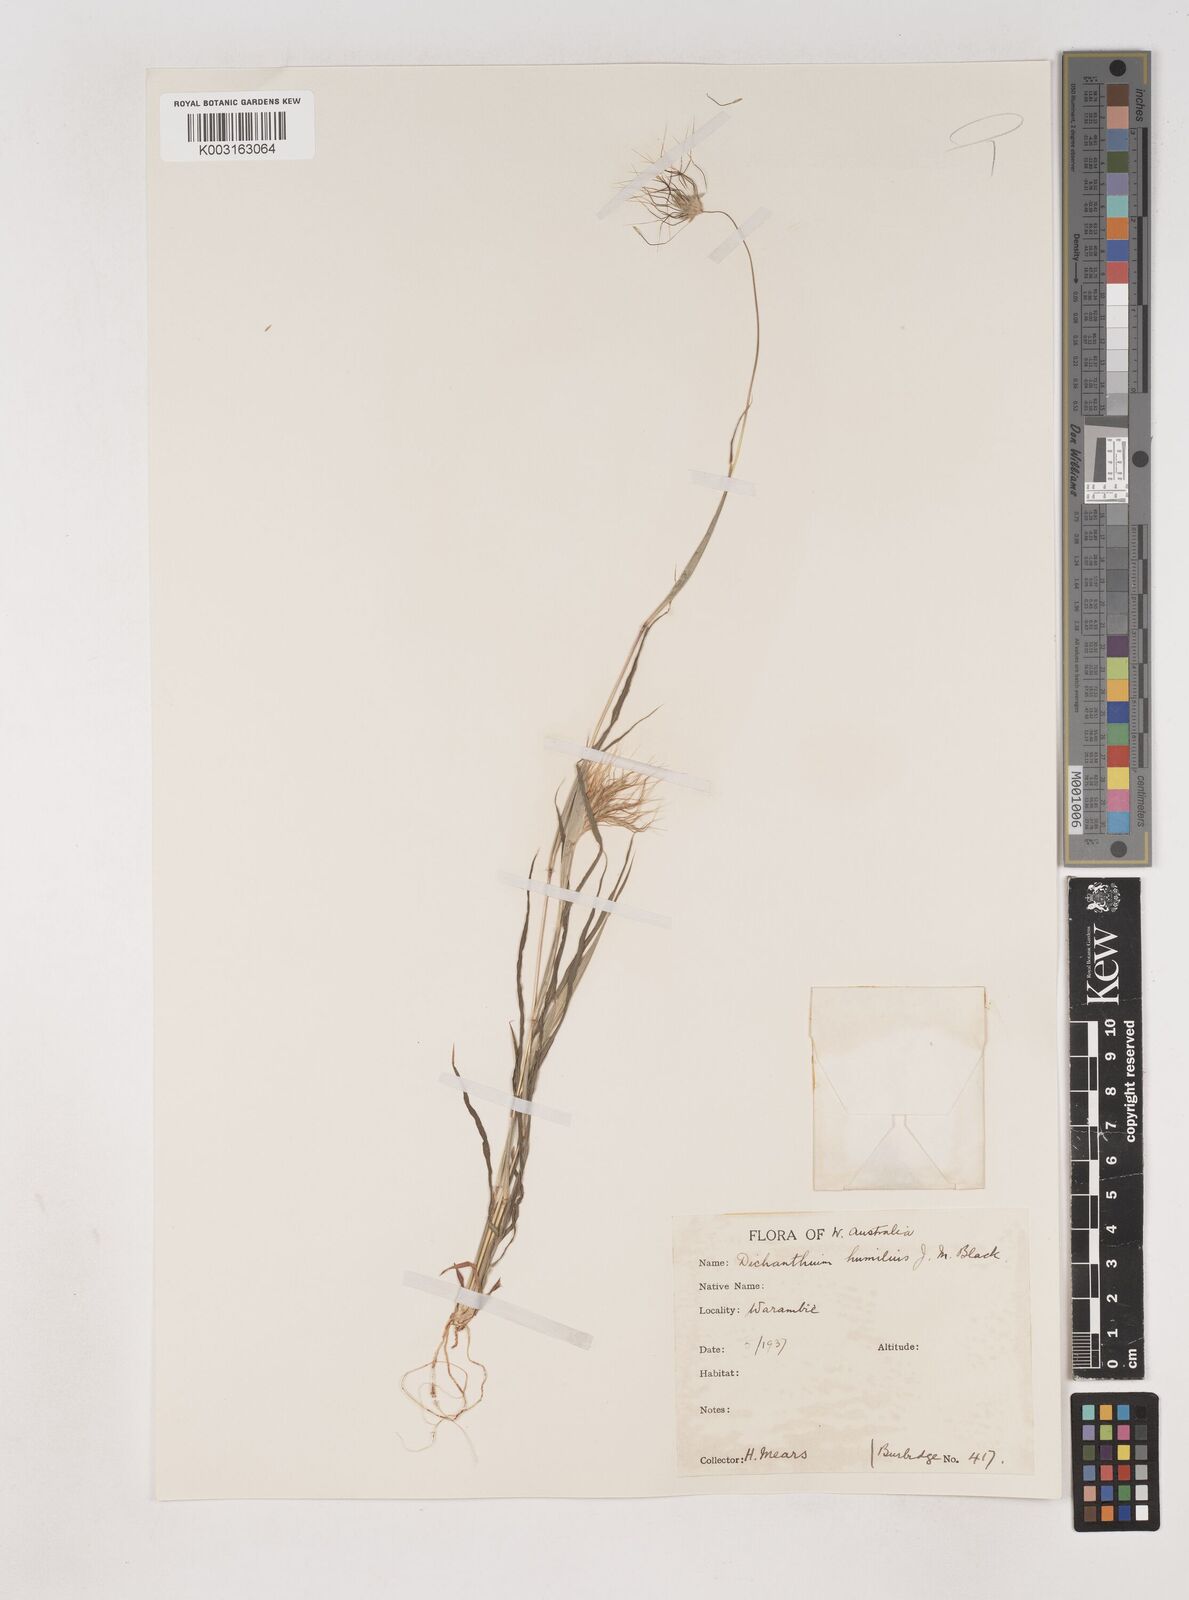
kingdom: Plantae
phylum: Tracheophyta
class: Liliopsida
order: Poales
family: Poaceae
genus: Dichanthium
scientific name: Dichanthium sericeum
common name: Silky bluestem
